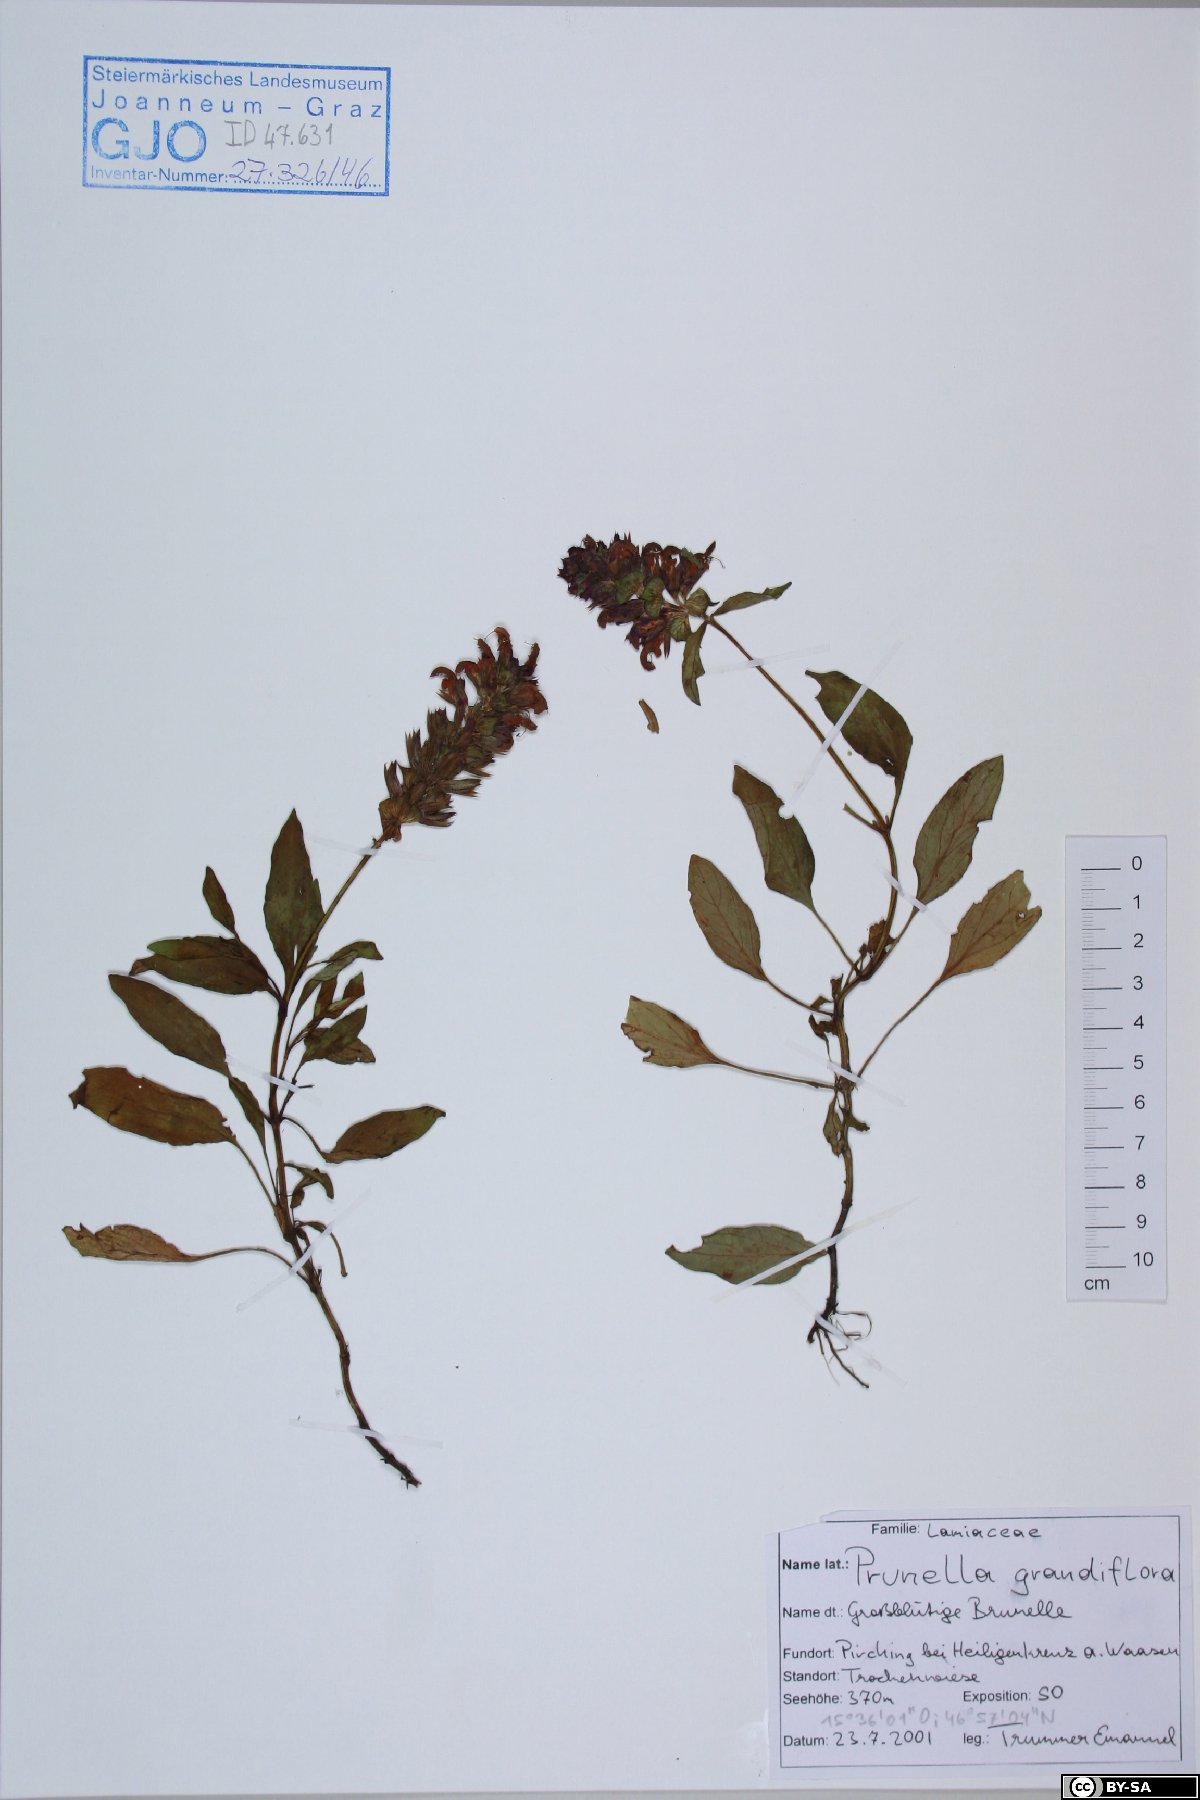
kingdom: Plantae
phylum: Tracheophyta
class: Magnoliopsida
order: Lamiales
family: Lamiaceae
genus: Prunella
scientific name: Prunella grandiflora
